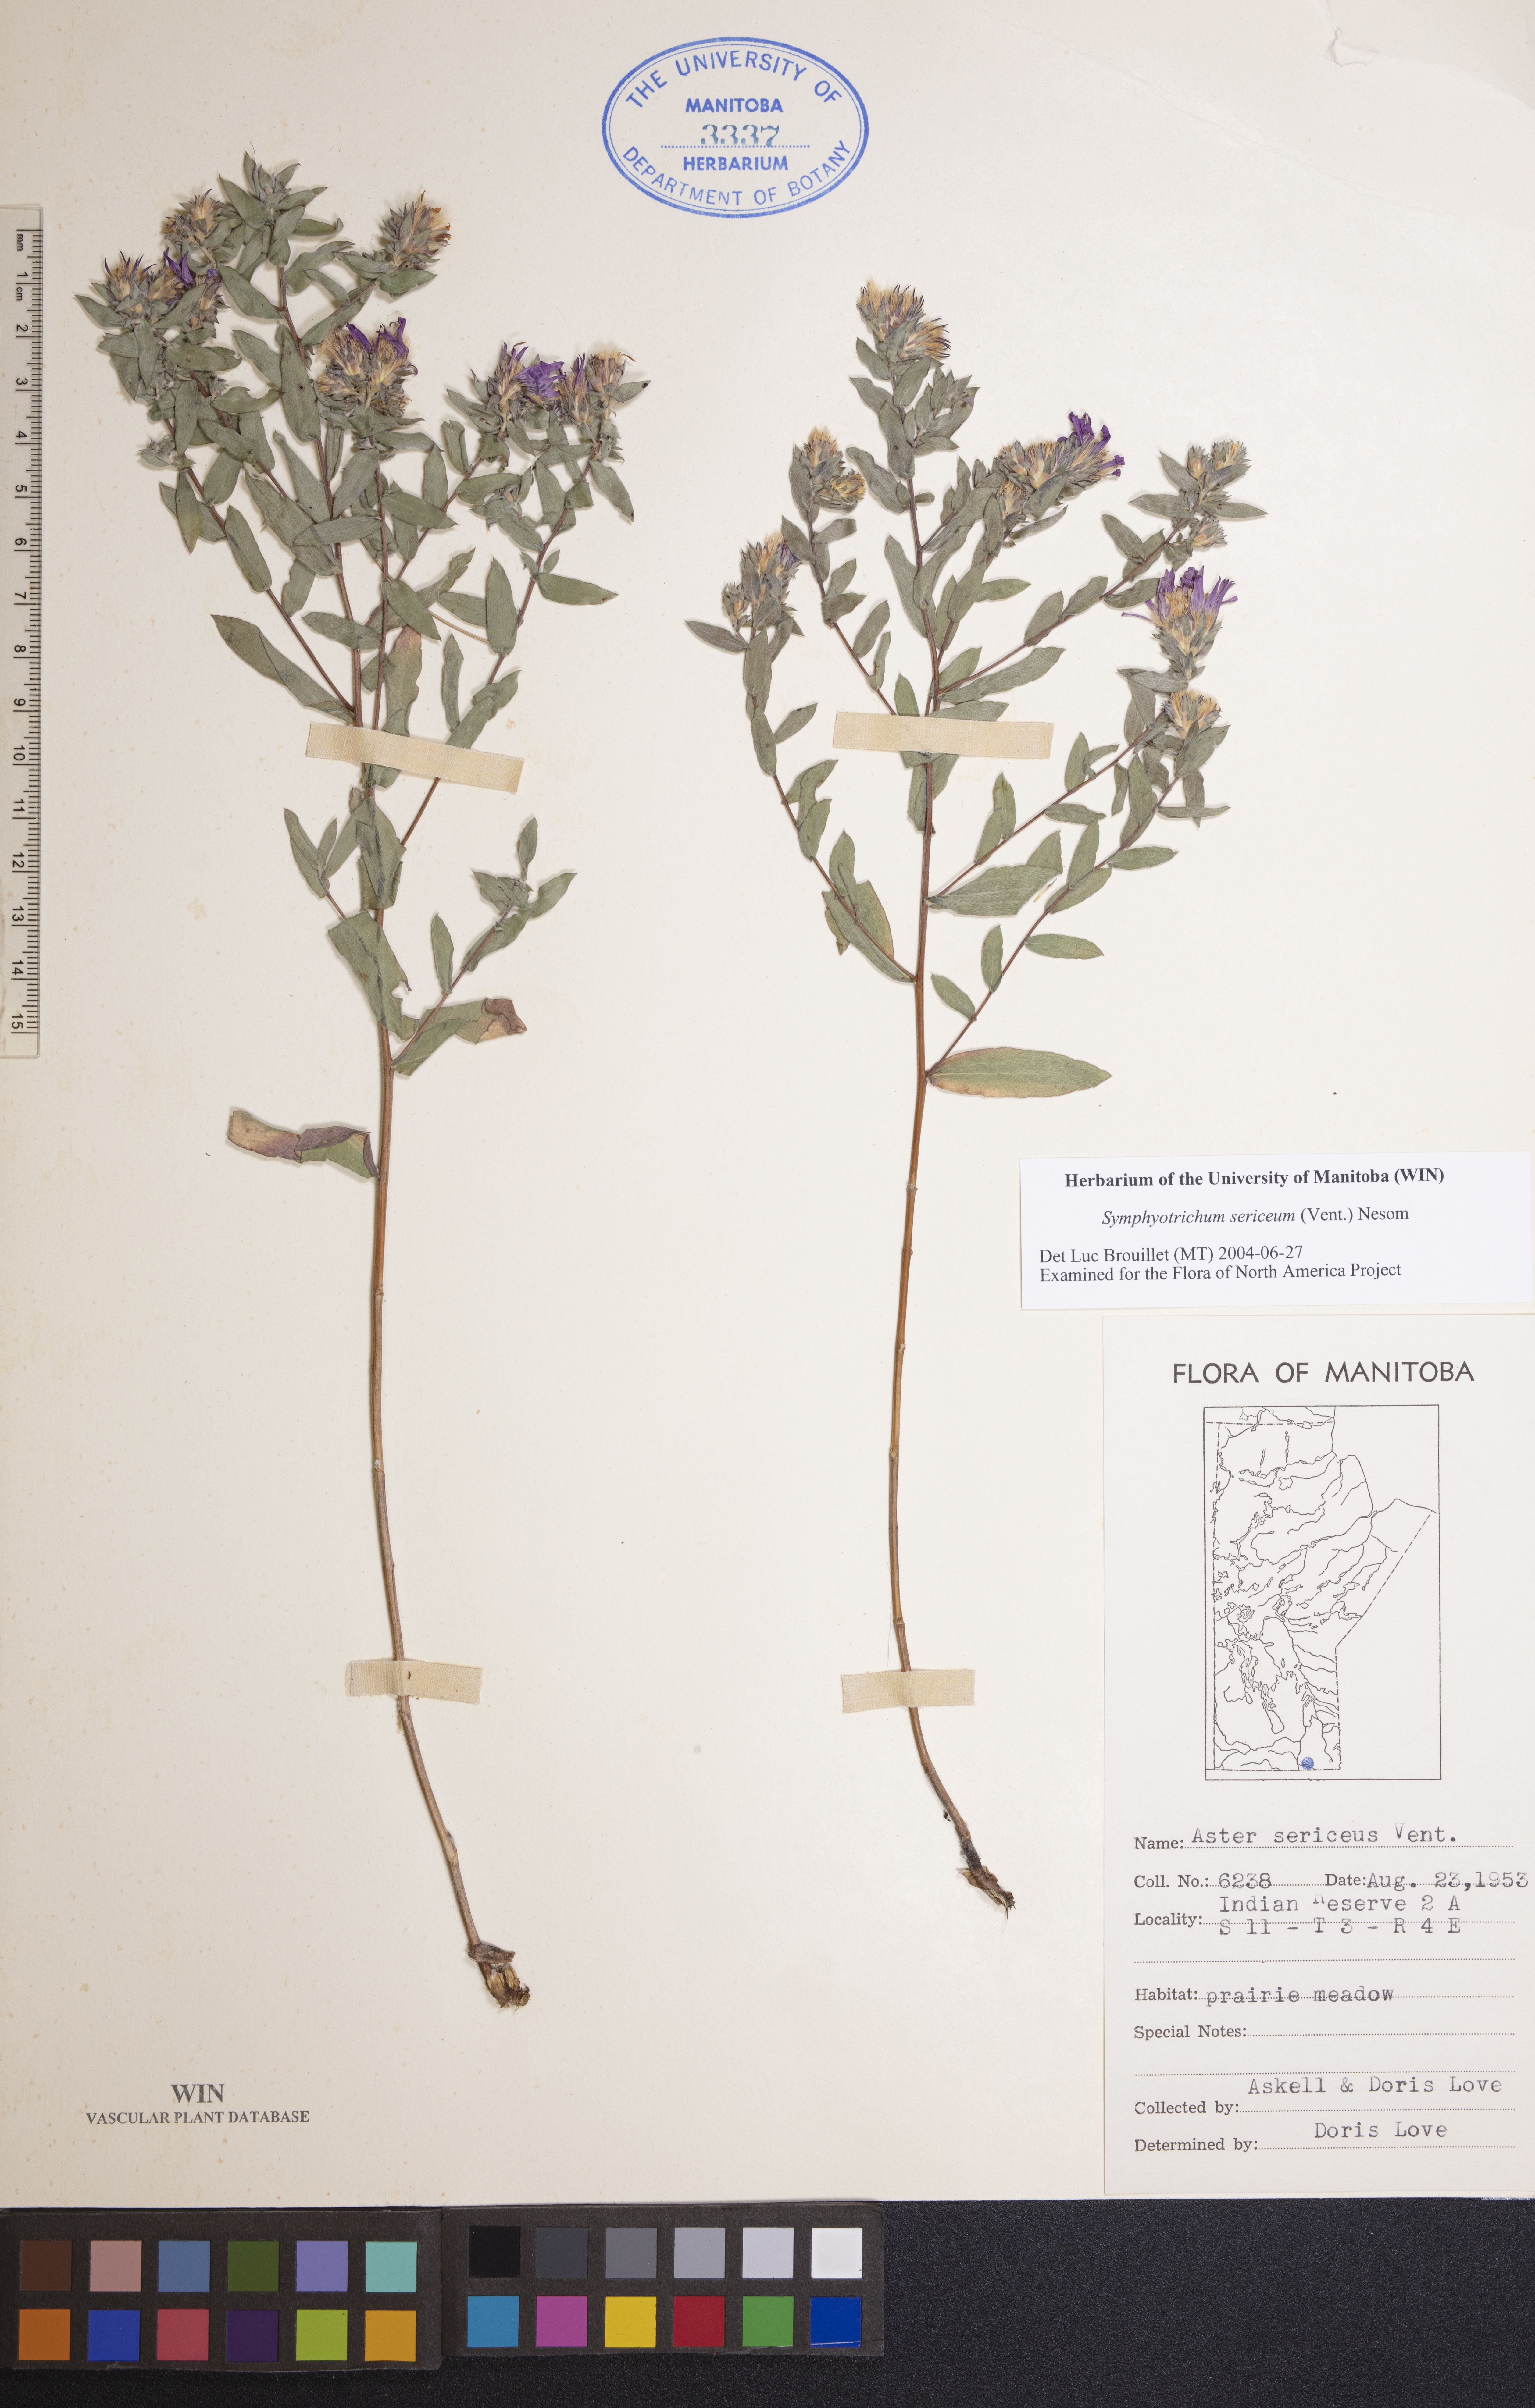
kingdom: Plantae
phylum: Tracheophyta
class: Magnoliopsida
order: Asterales
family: Asteraceae
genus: Symphyotrichum
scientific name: Symphyotrichum sericeum
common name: Silky aster
